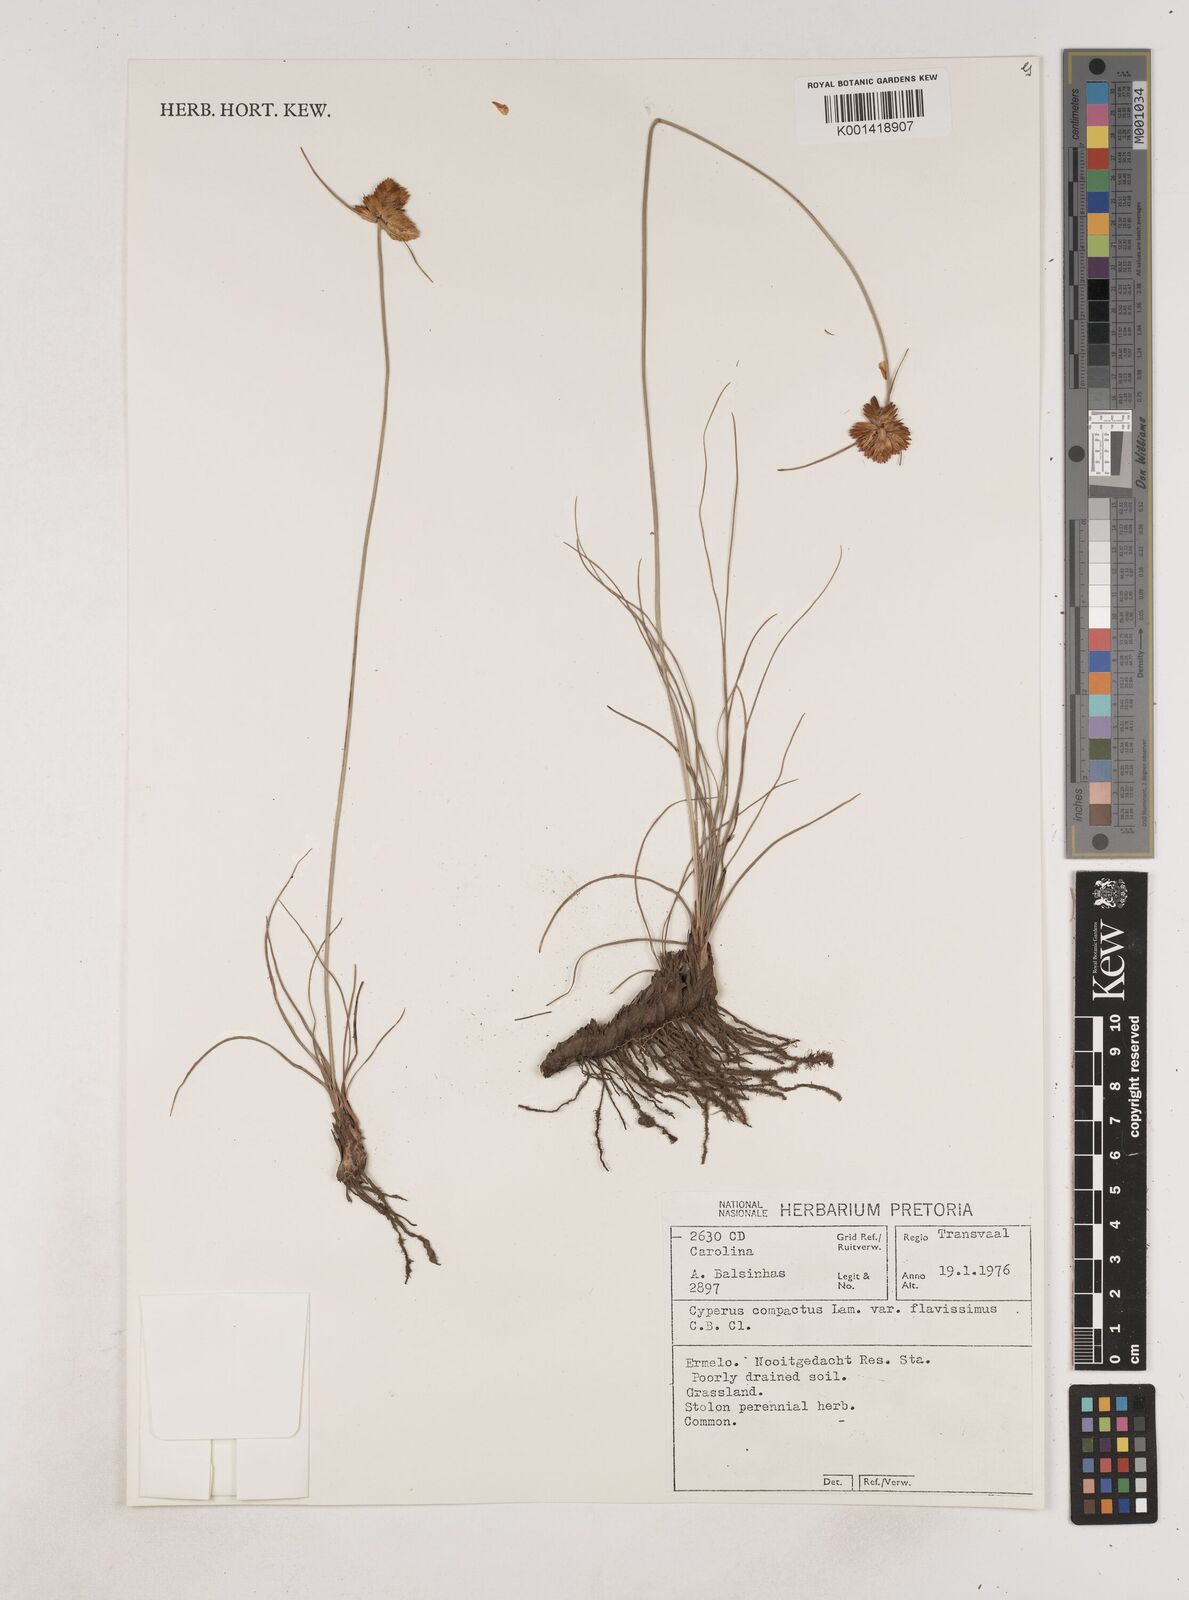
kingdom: Plantae
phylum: Tracheophyta
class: Liliopsida
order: Poales
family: Cyperaceae
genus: Cyperus
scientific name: Cyperus sphaerocephalus
